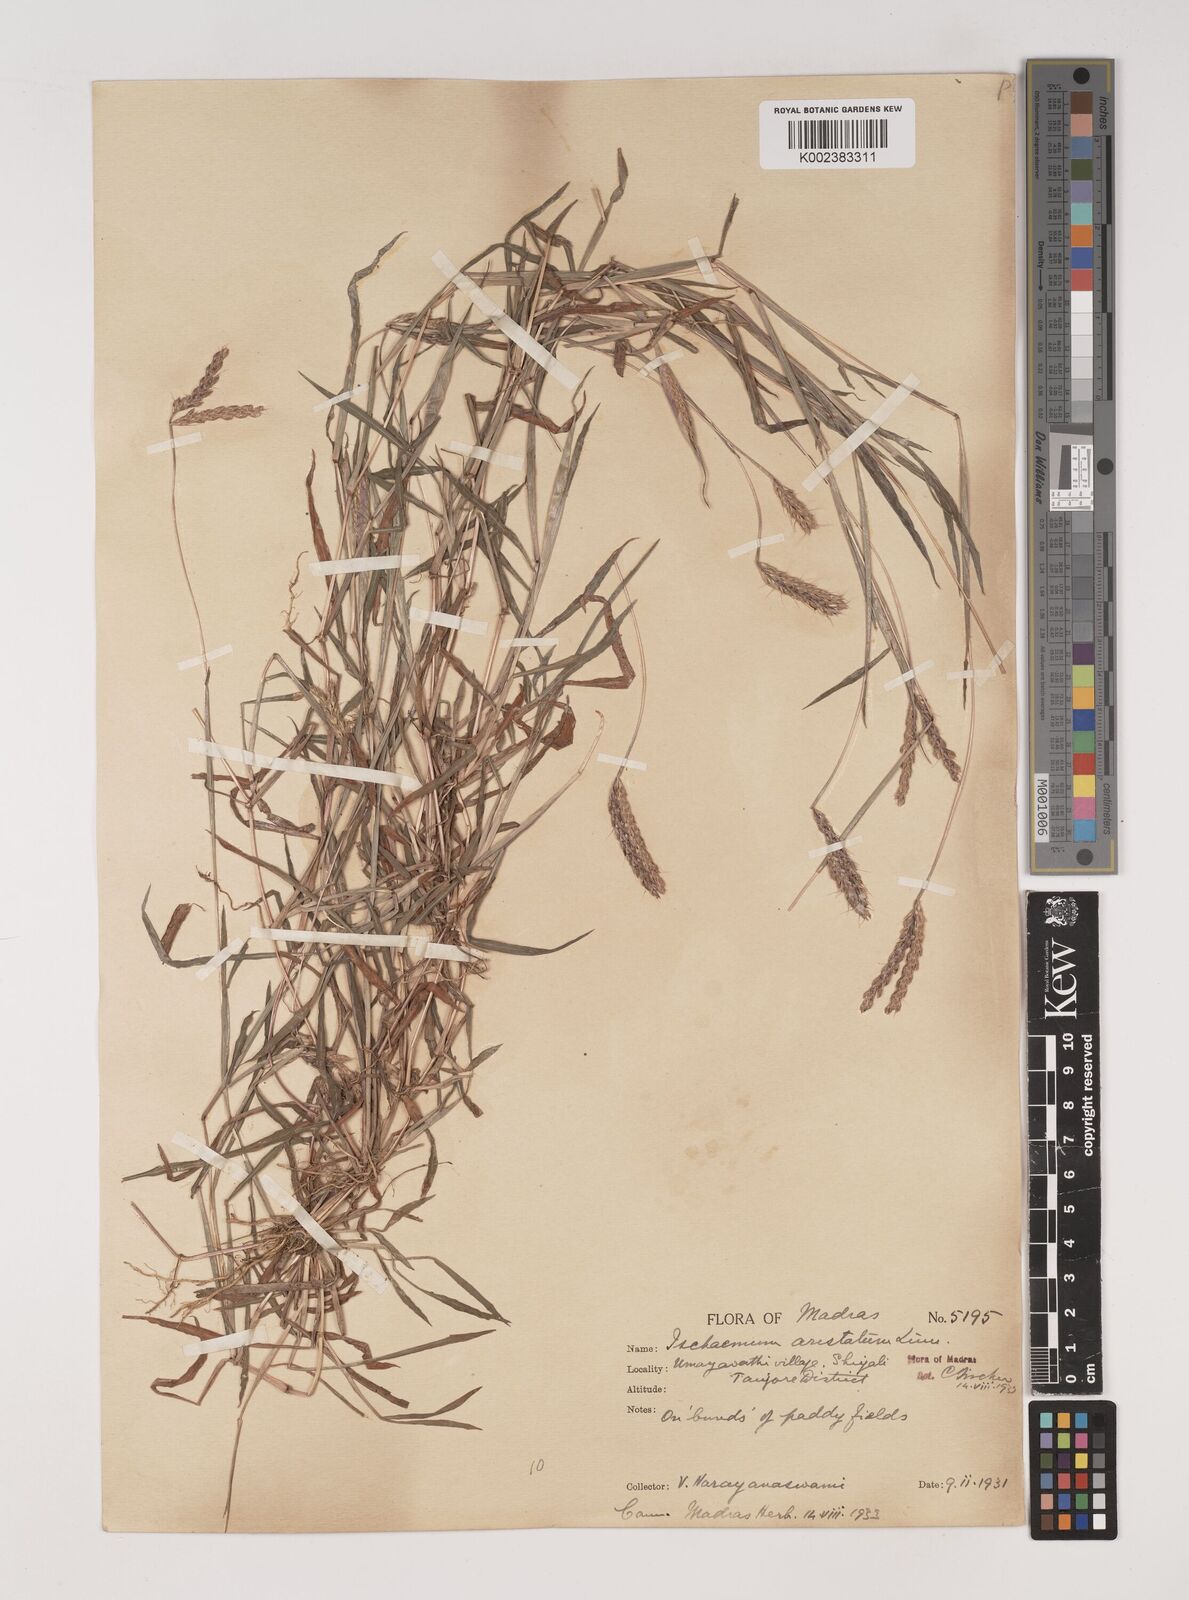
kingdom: Plantae
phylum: Tracheophyta
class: Liliopsida
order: Poales
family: Poaceae
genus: Polytrias
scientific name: Polytrias indica
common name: Indian murainagrass
